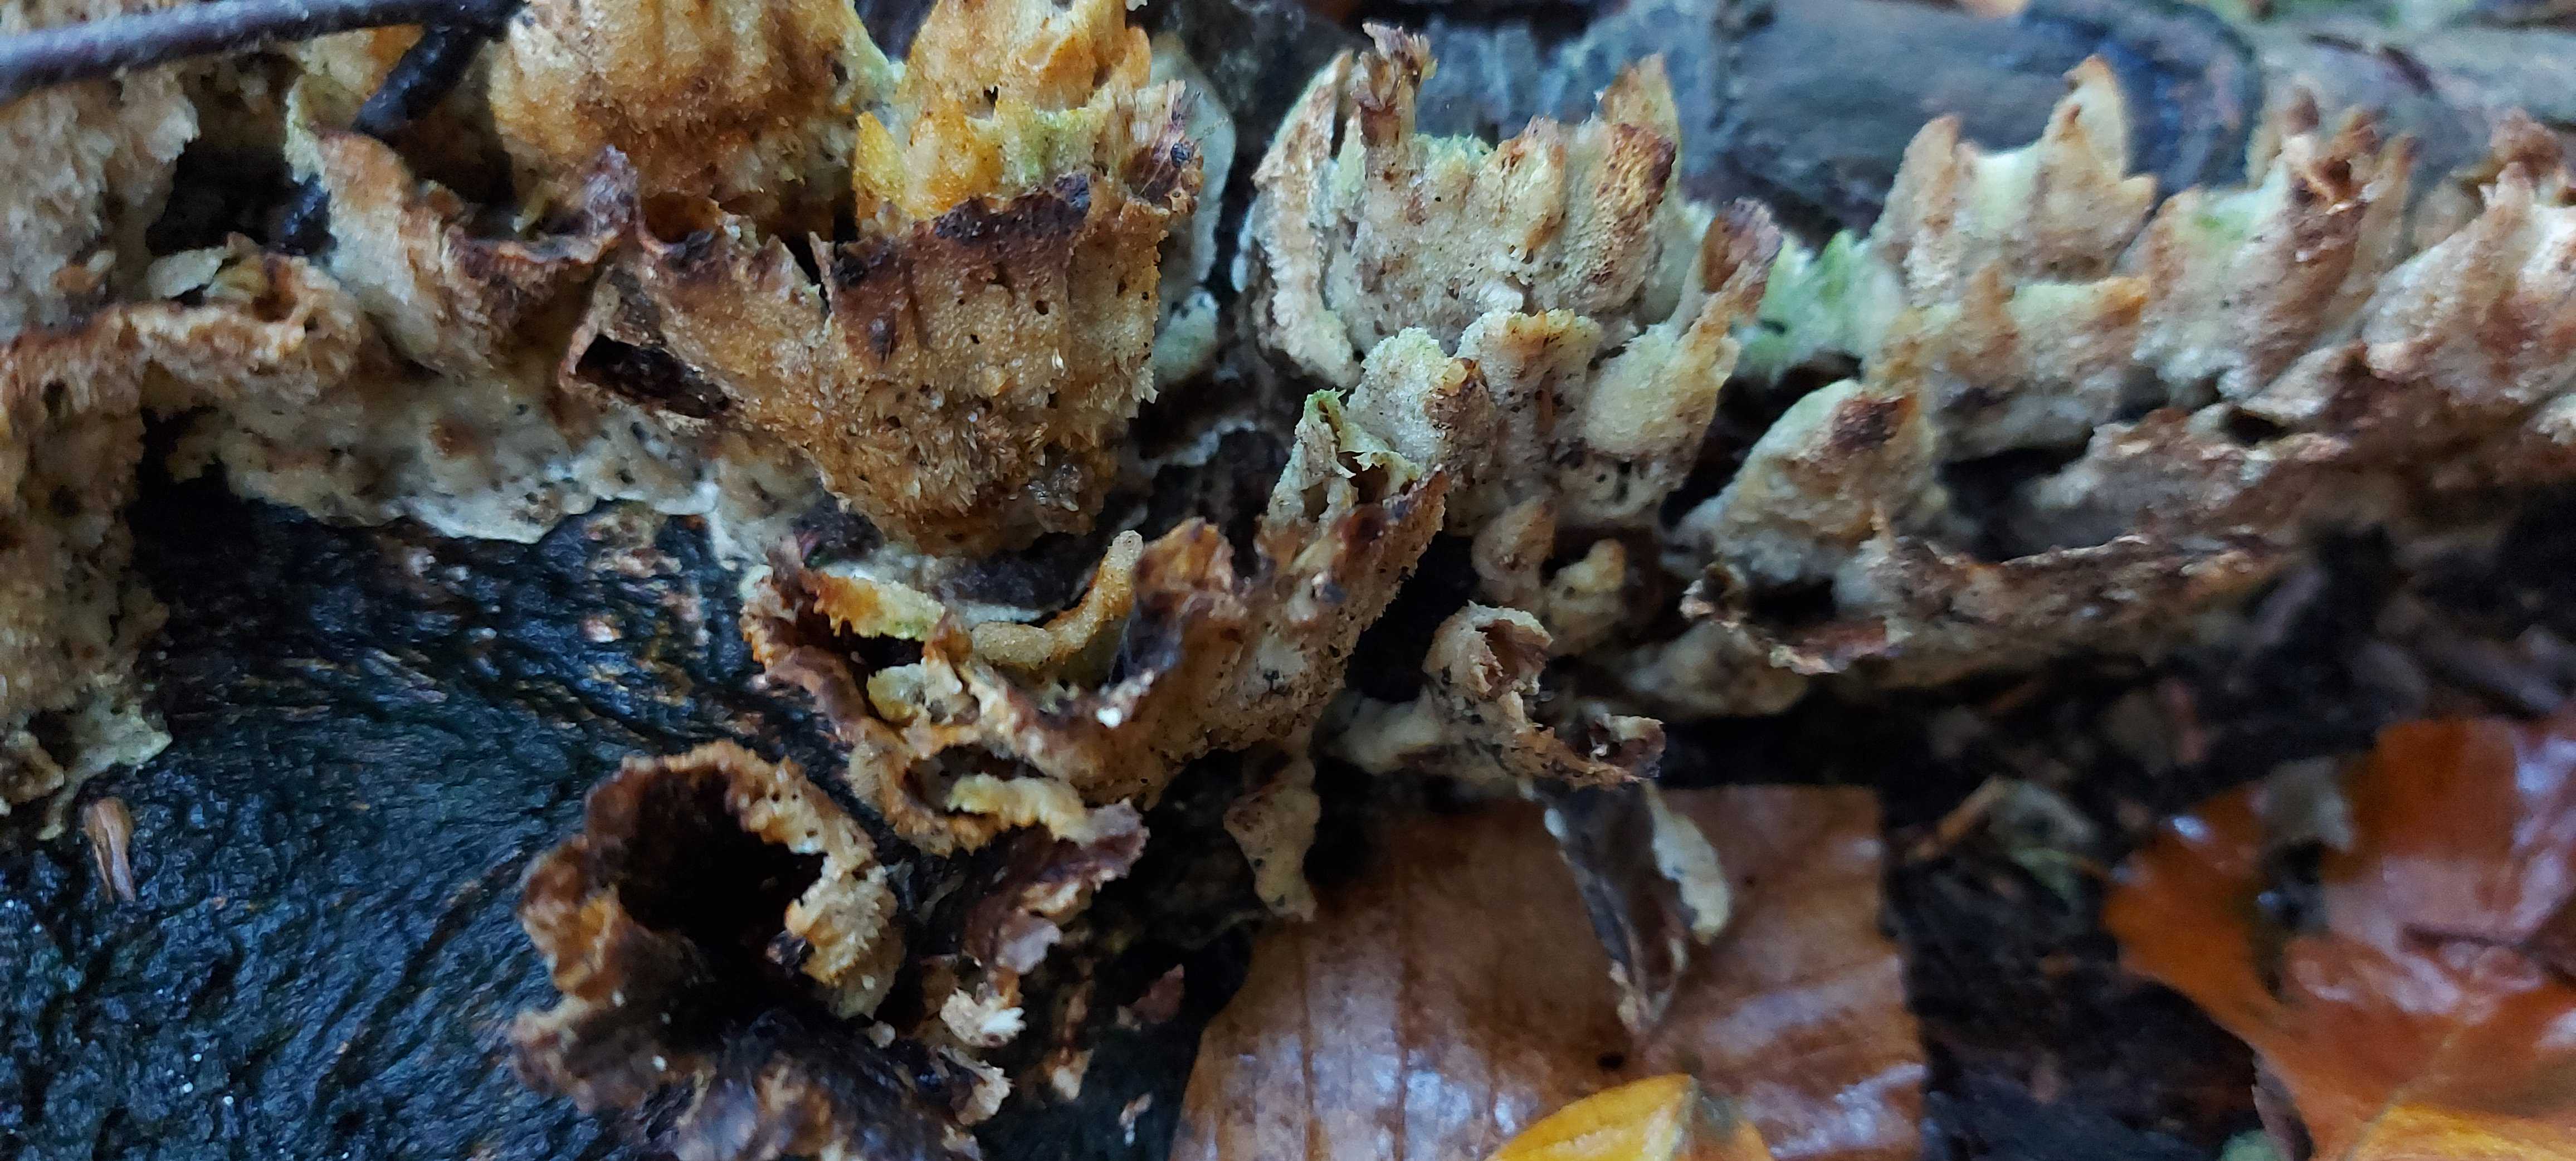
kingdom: Fungi
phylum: Basidiomycota
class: Agaricomycetes
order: Polyporales
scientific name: Polyporales
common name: poresvampordenen
